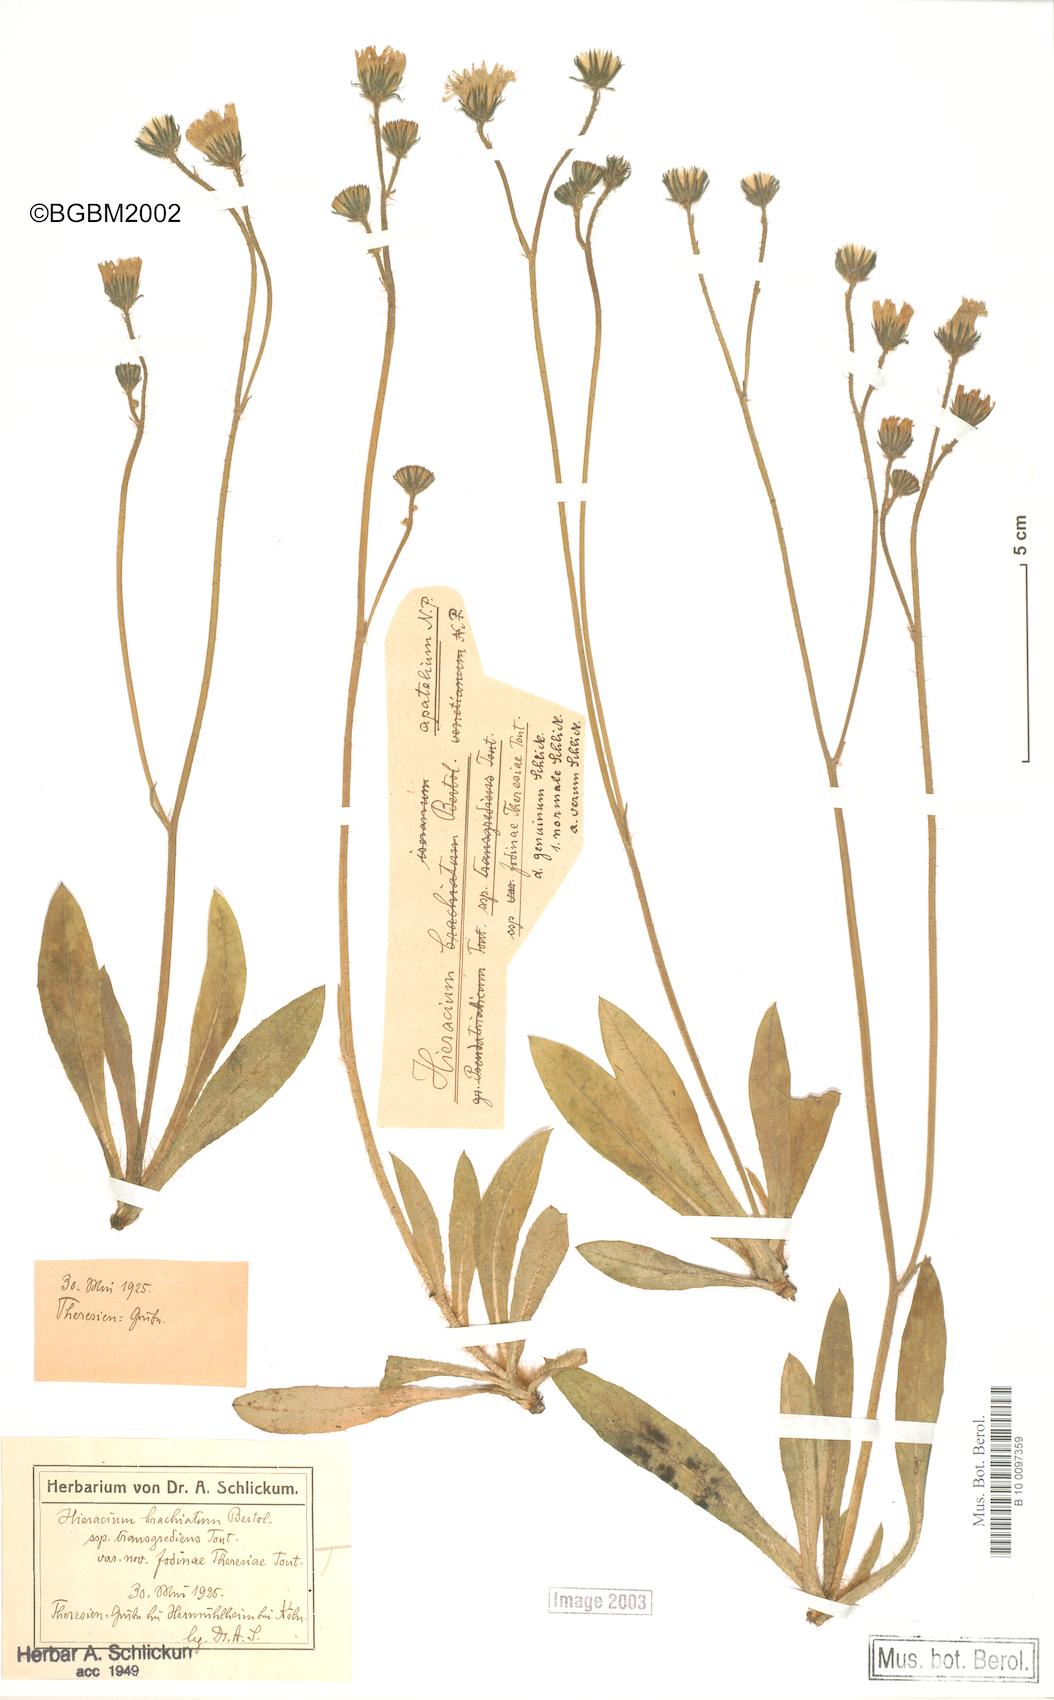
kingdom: Plantae
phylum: Tracheophyta
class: Magnoliopsida
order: Asterales
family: Asteraceae
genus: Pilosella
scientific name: Pilosella acutifolia
